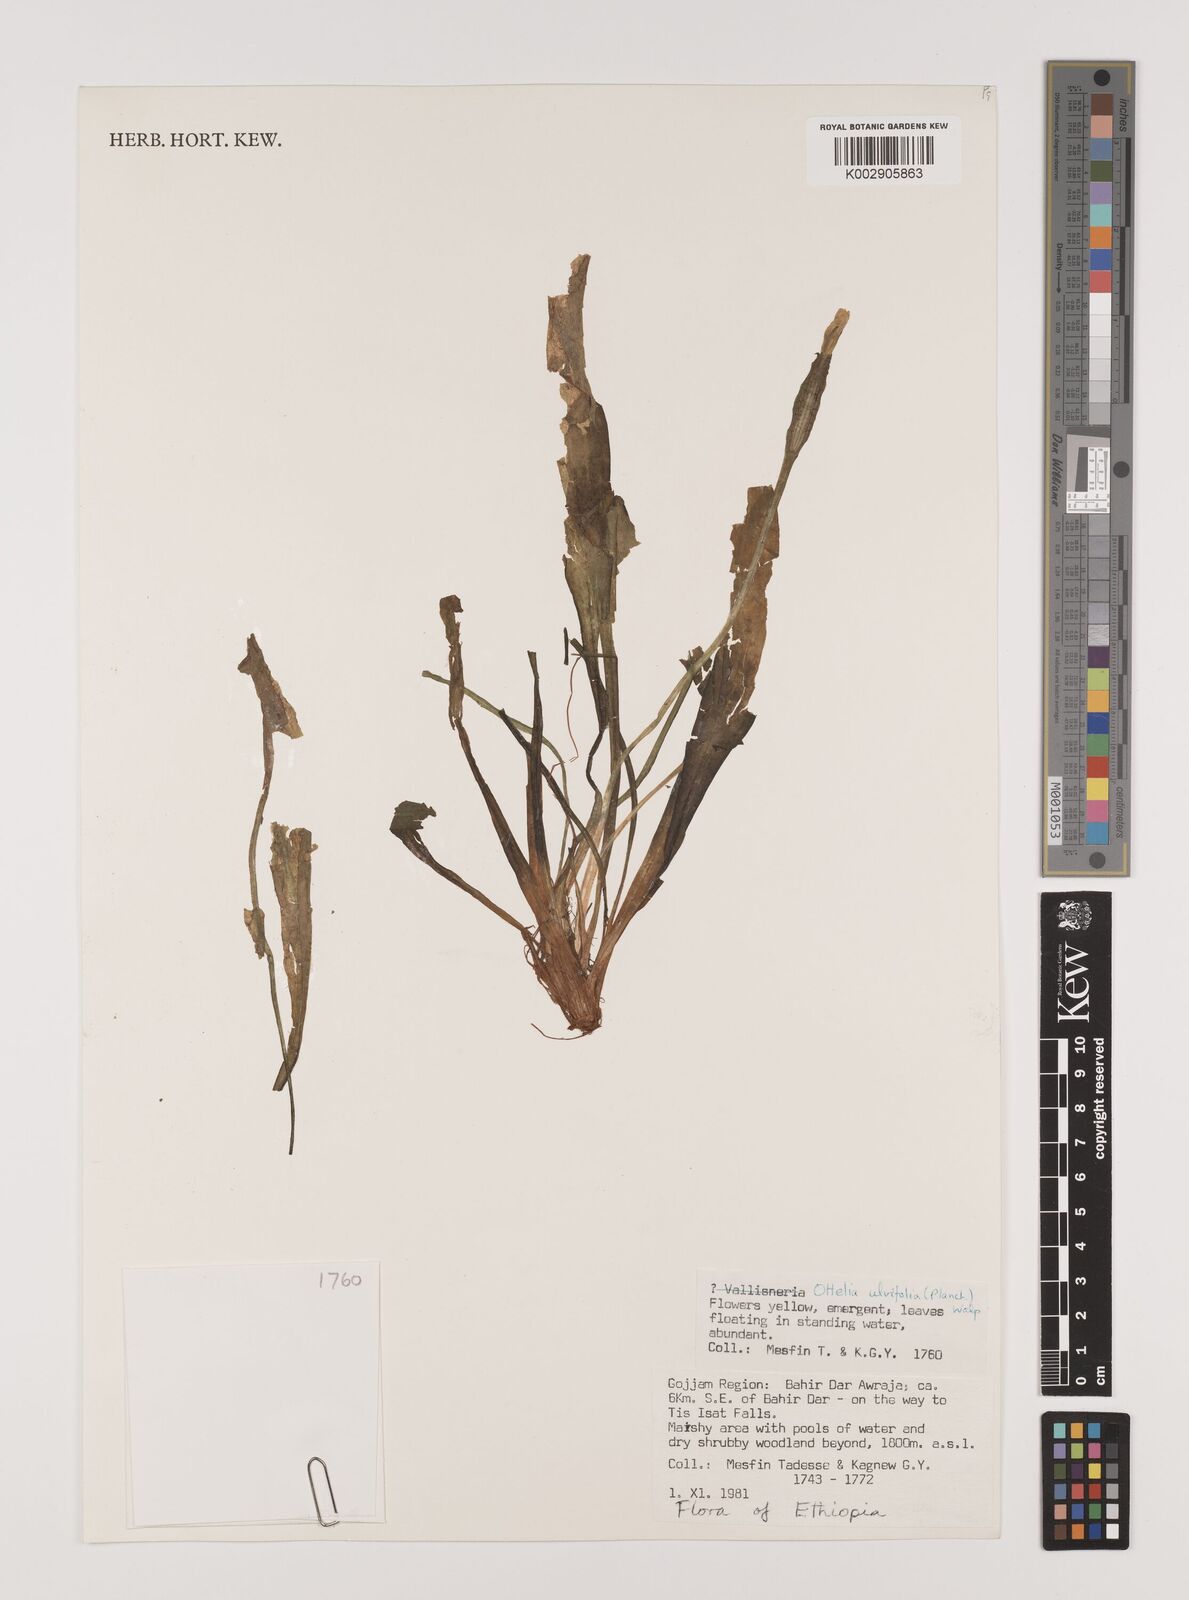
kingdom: Plantae
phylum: Tracheophyta
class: Liliopsida
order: Alismatales
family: Hydrocharitaceae
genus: Ottelia
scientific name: Ottelia ulvifolia
